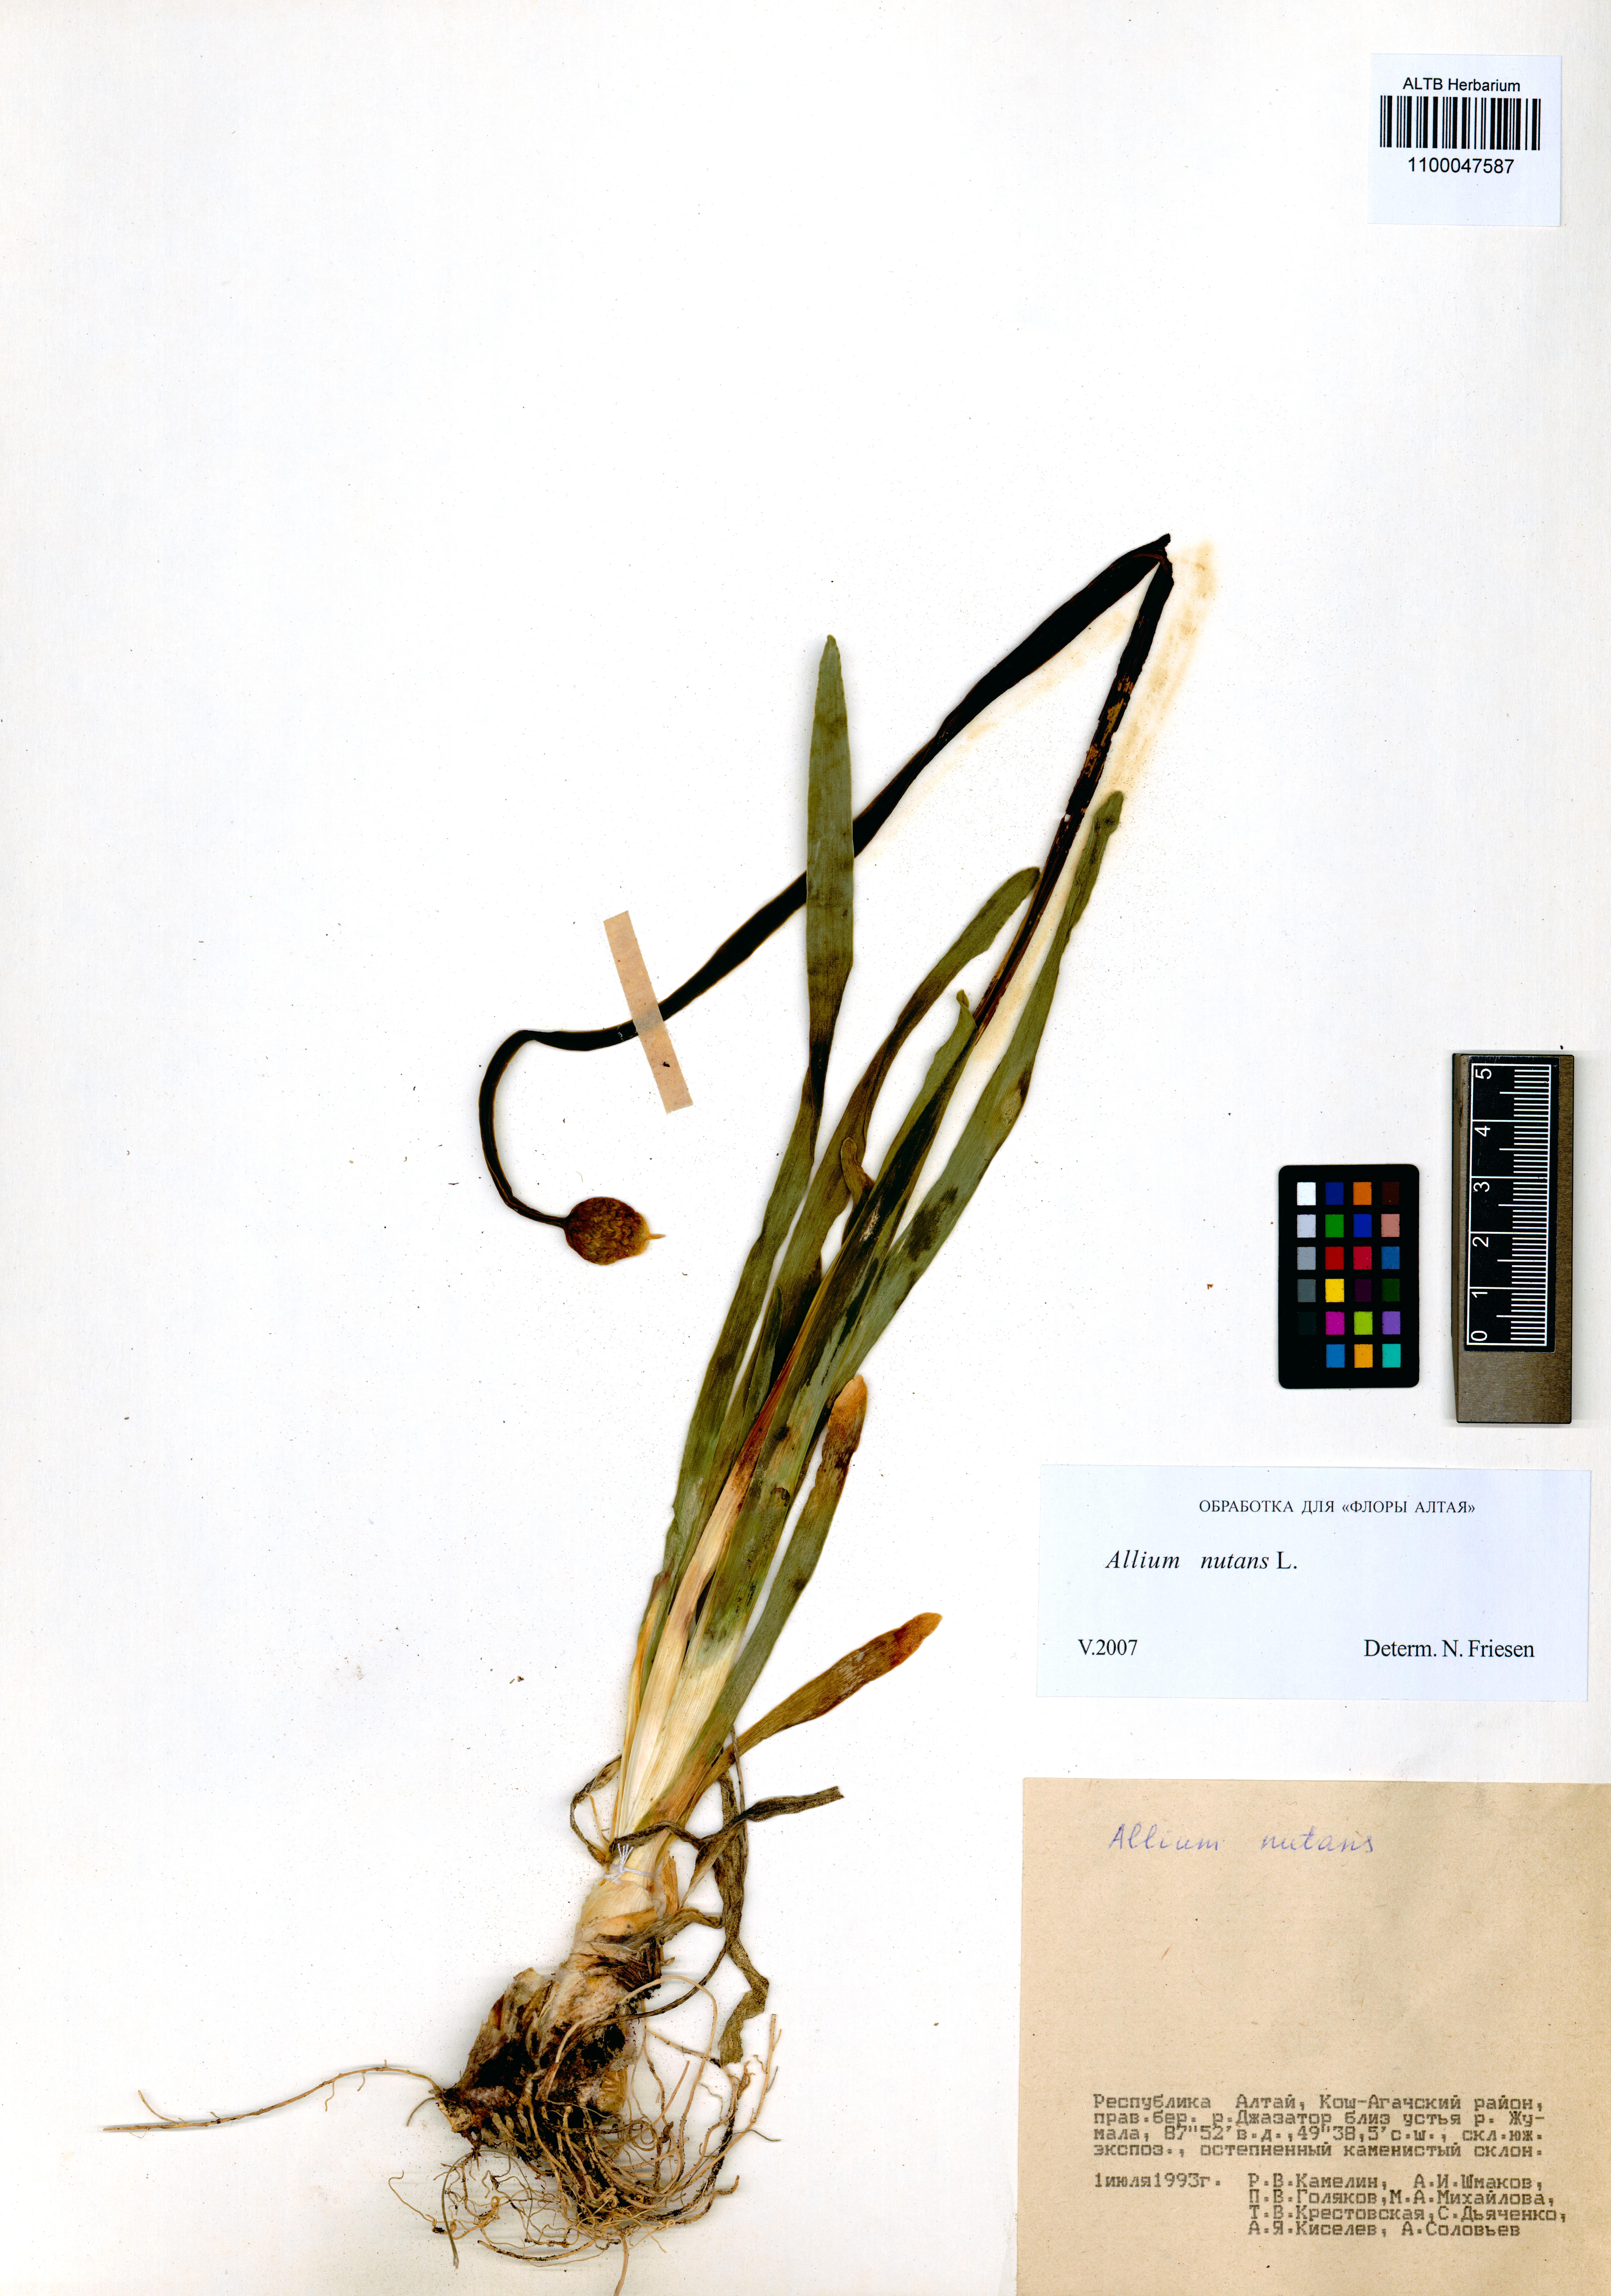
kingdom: Plantae
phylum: Tracheophyta
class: Liliopsida
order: Asparagales
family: Amaryllidaceae
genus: Allium
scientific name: Allium nutans
